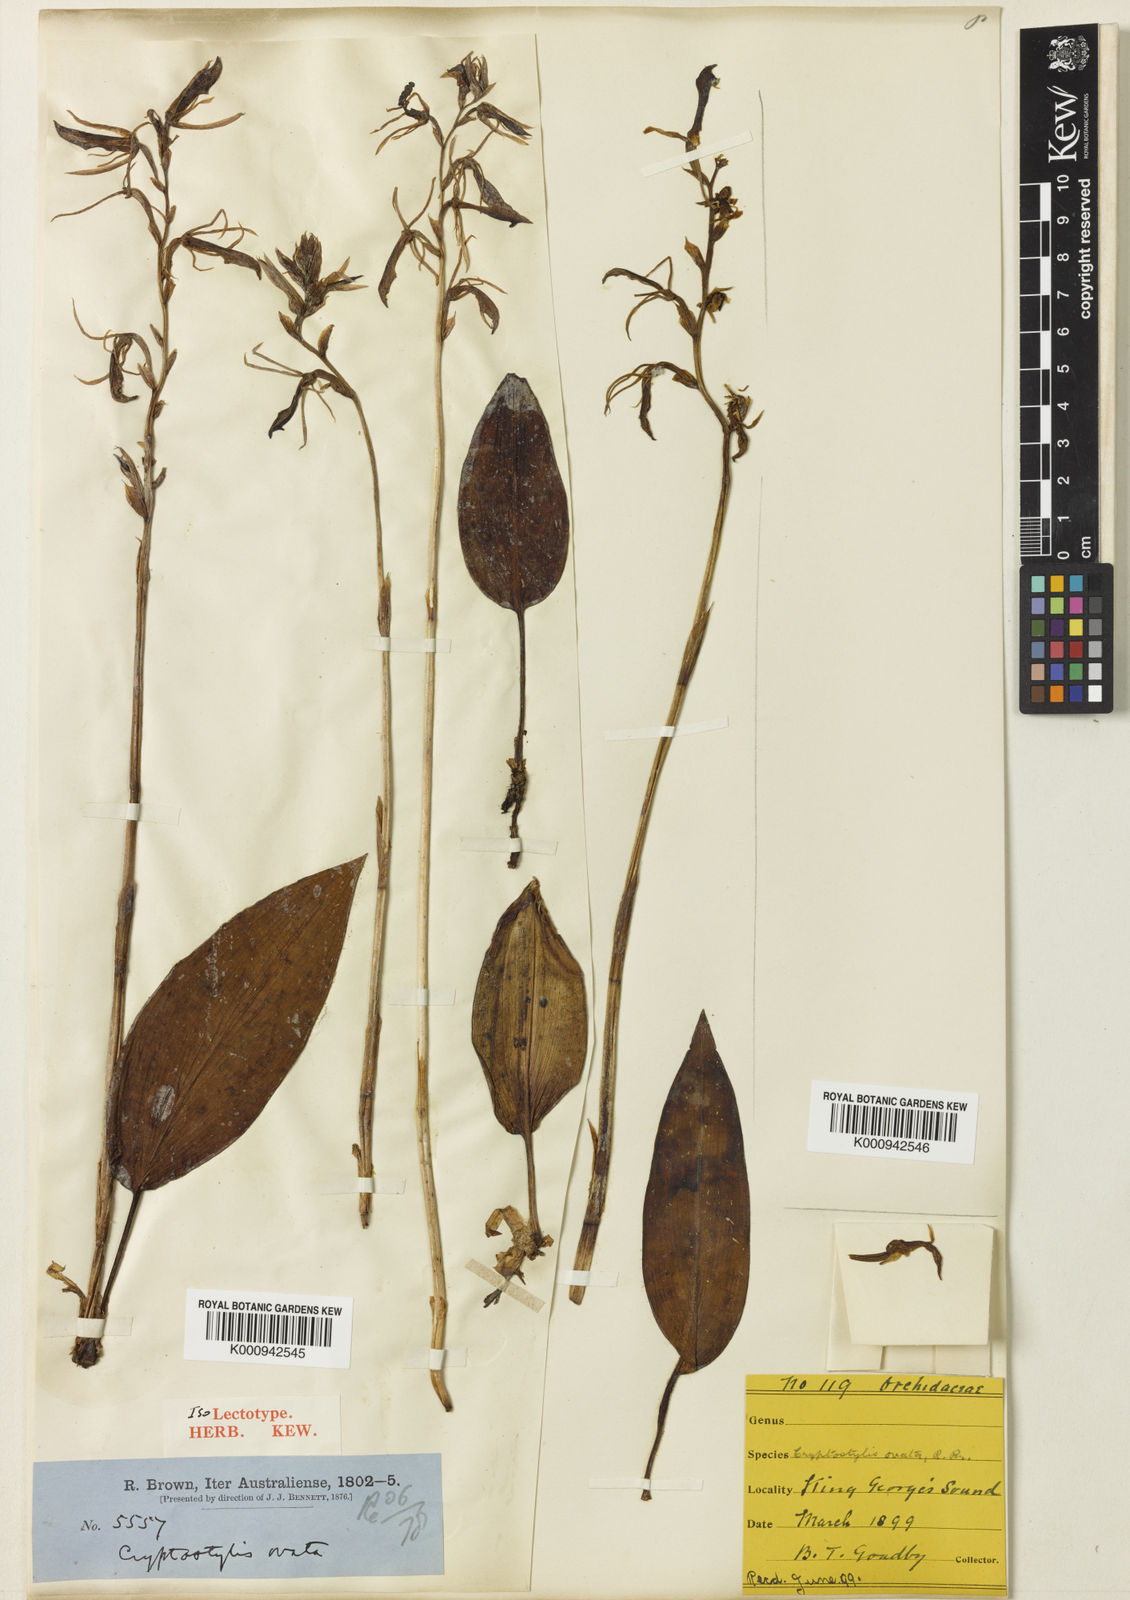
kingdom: Plantae
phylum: Tracheophyta
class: Liliopsida
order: Asparagales
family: Orchidaceae
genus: Cryptostylis
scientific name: Cryptostylis ovata
